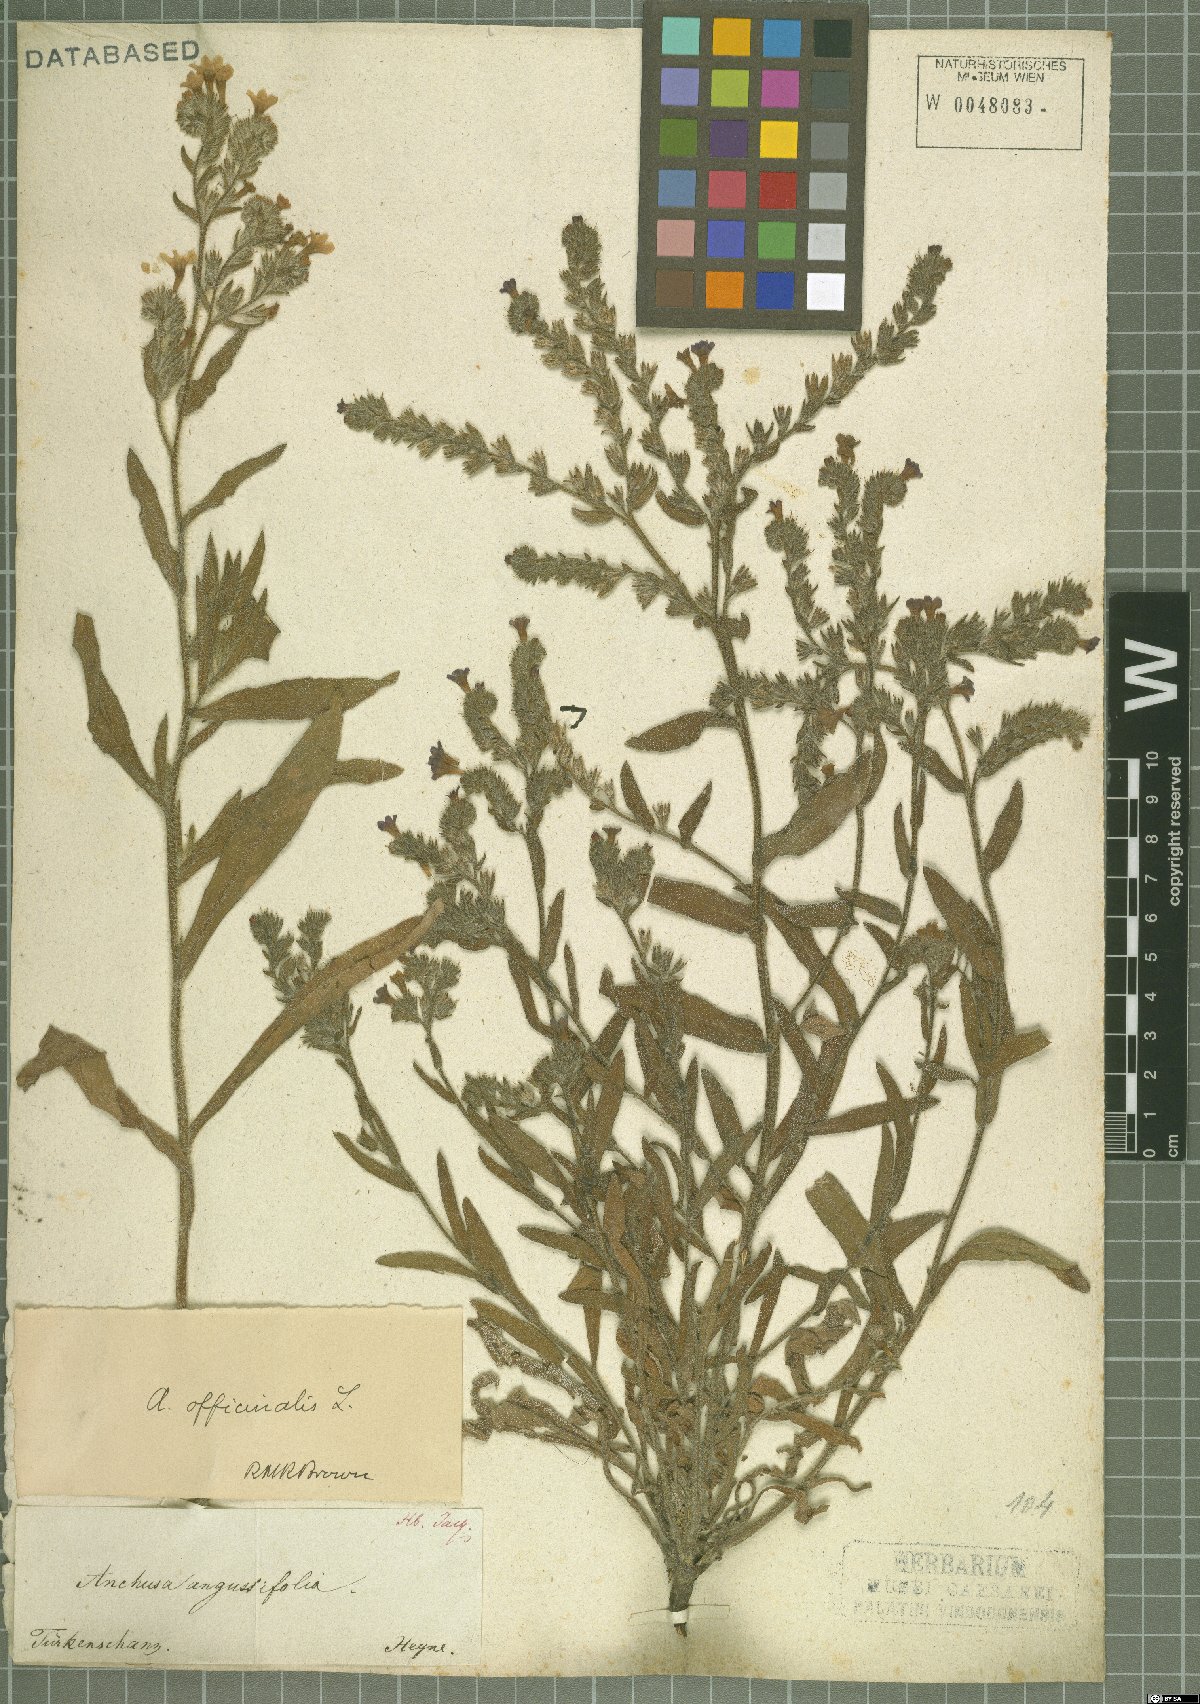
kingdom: Plantae
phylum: Tracheophyta
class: Magnoliopsida
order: Boraginales
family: Boraginaceae
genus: Anchusa
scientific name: Anchusa officinalis
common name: Alkanet
